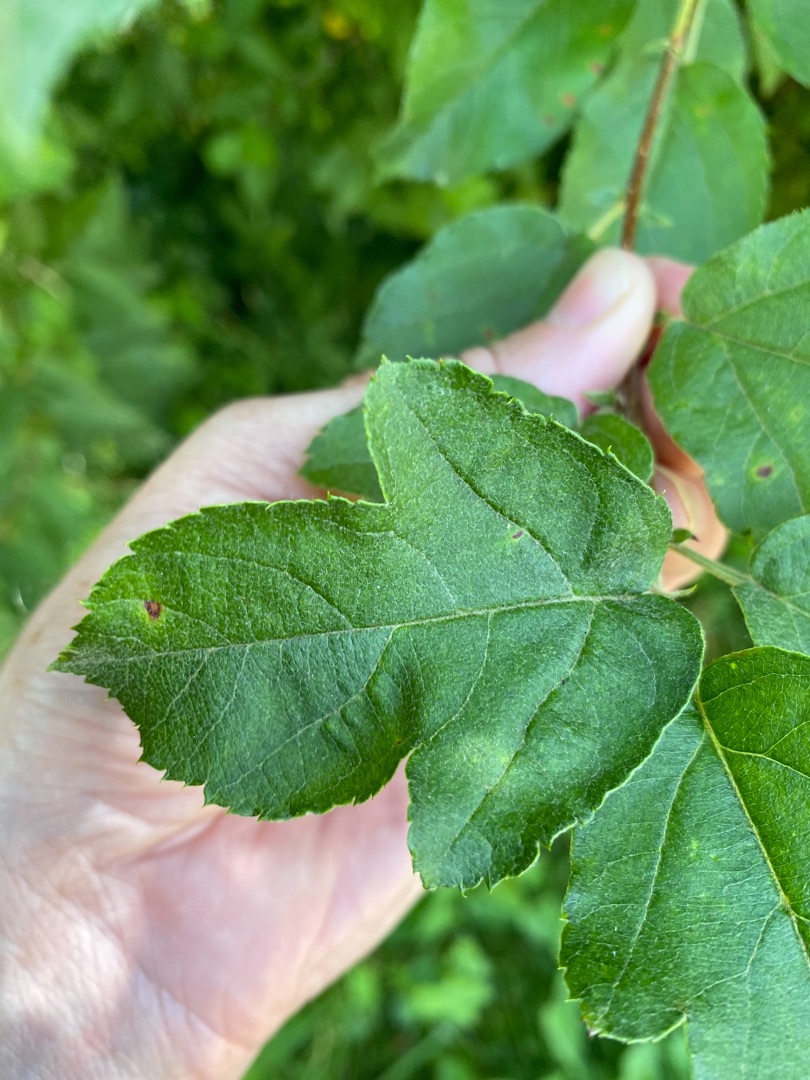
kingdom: Plantae
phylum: Tracheophyta
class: Magnoliopsida
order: Rosales
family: Rosaceae
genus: Malus
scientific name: Malus toringo
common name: Sargents-æble
